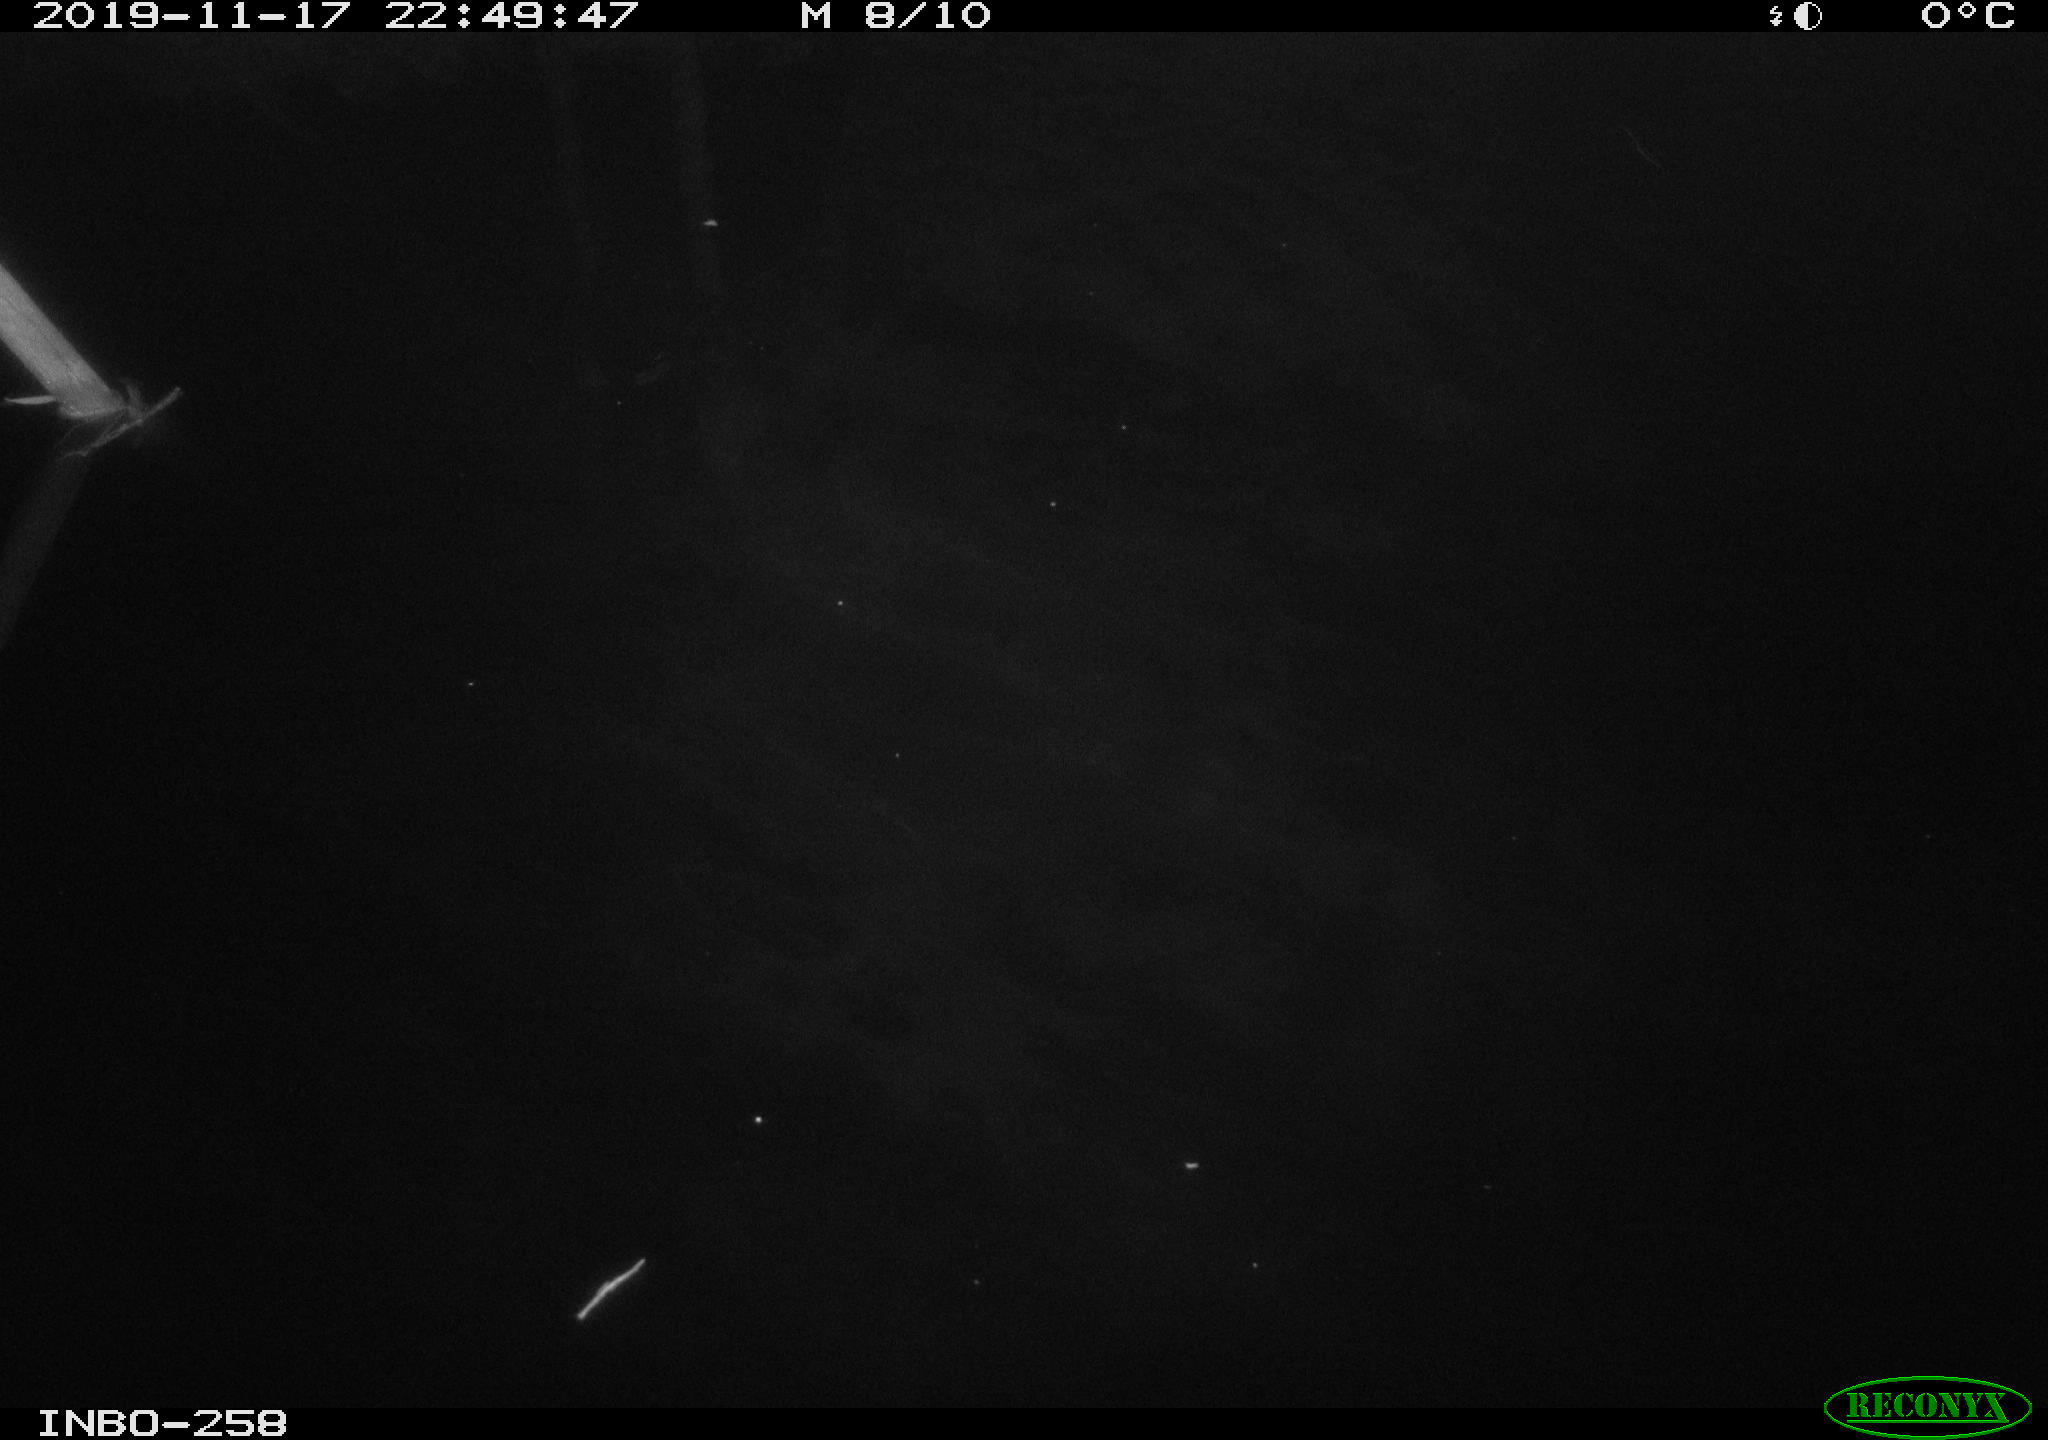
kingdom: Animalia
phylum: Chordata
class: Aves
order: Anseriformes
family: Anatidae
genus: Anas
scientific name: Anas platyrhynchos
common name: Mallard
